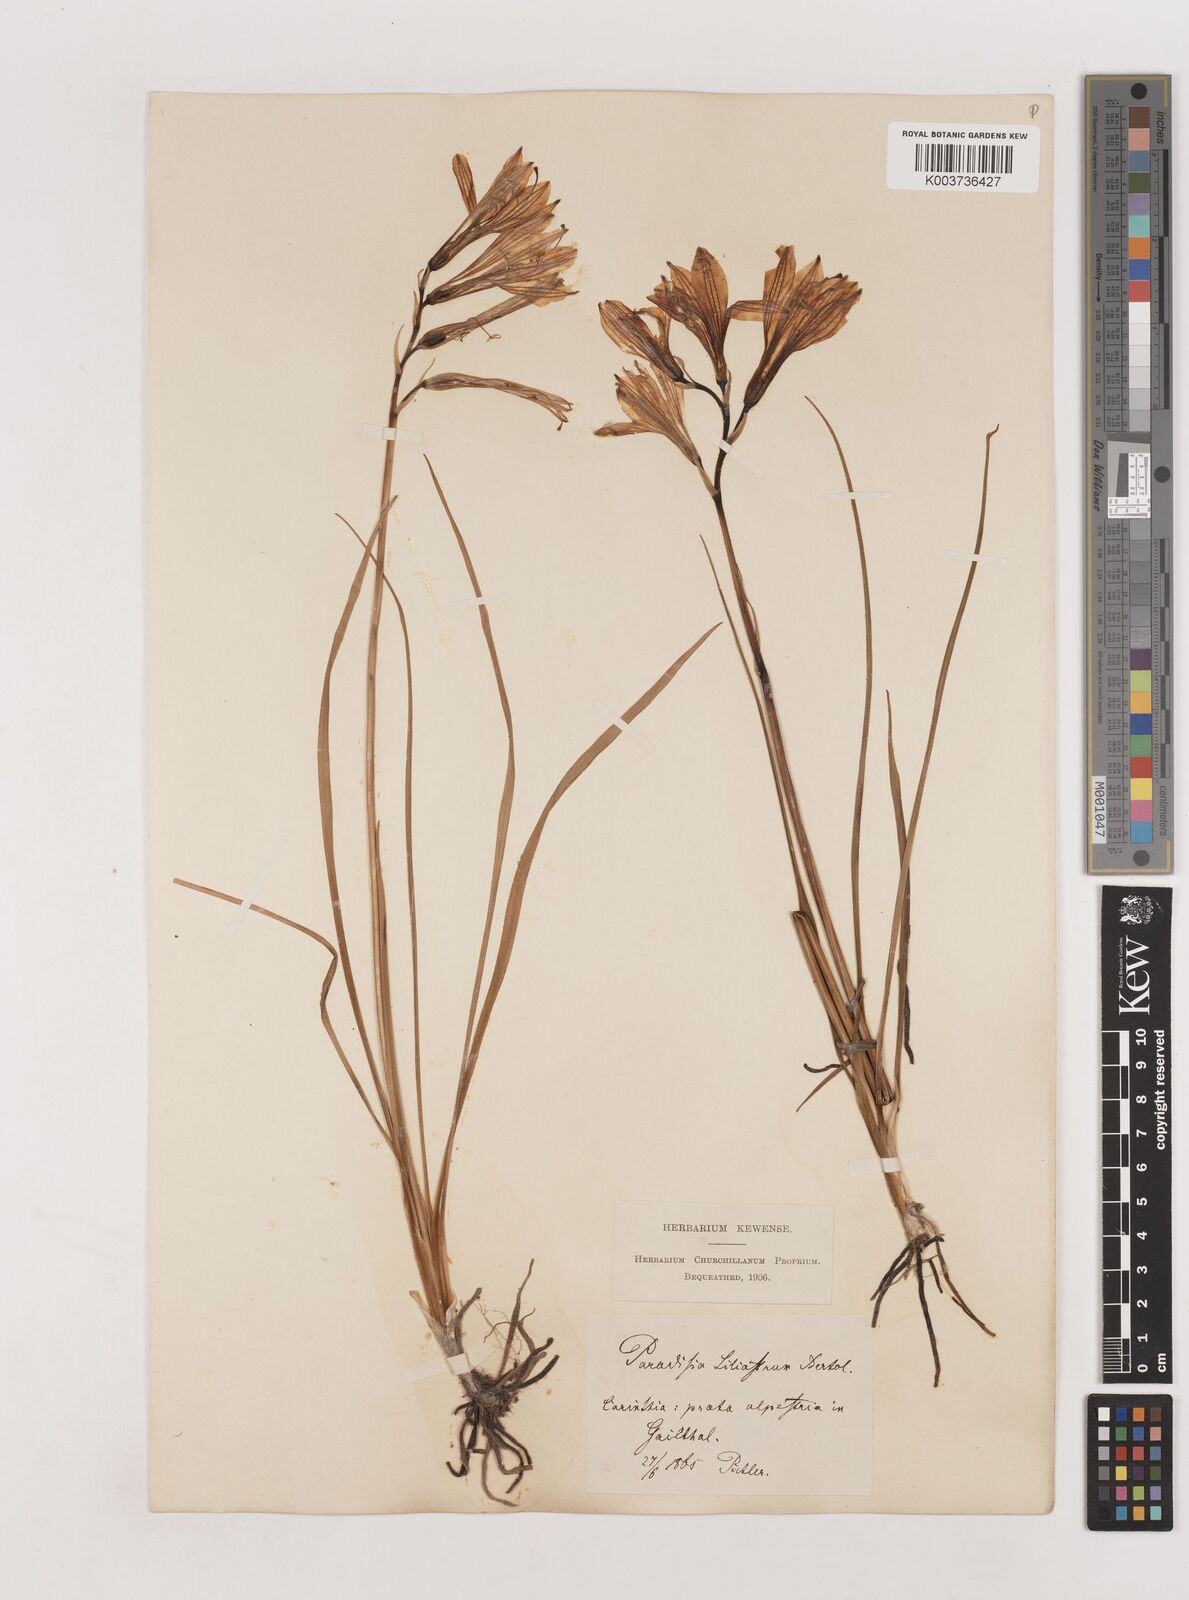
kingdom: Plantae
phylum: Tracheophyta
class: Liliopsida
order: Asparagales
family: Asparagaceae
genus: Paradisea
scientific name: Paradisea liliastrum
